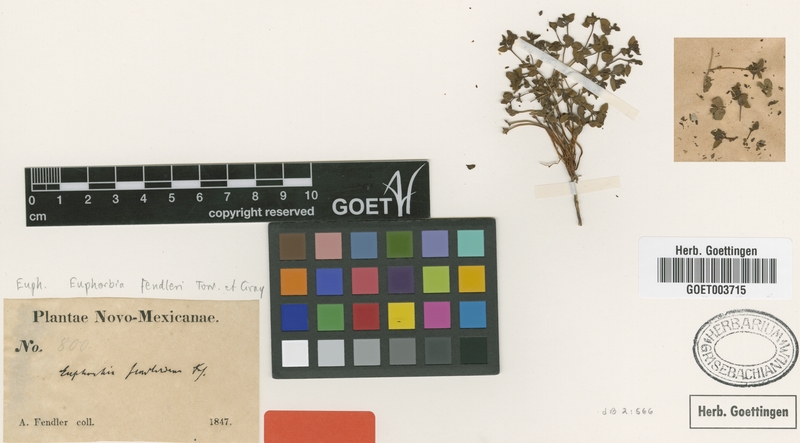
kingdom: Plantae
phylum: Tracheophyta
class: Magnoliopsida
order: Malpighiales
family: Euphorbiaceae
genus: Euphorbia
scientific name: Euphorbia fendleri
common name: Fendler's euphorbia
